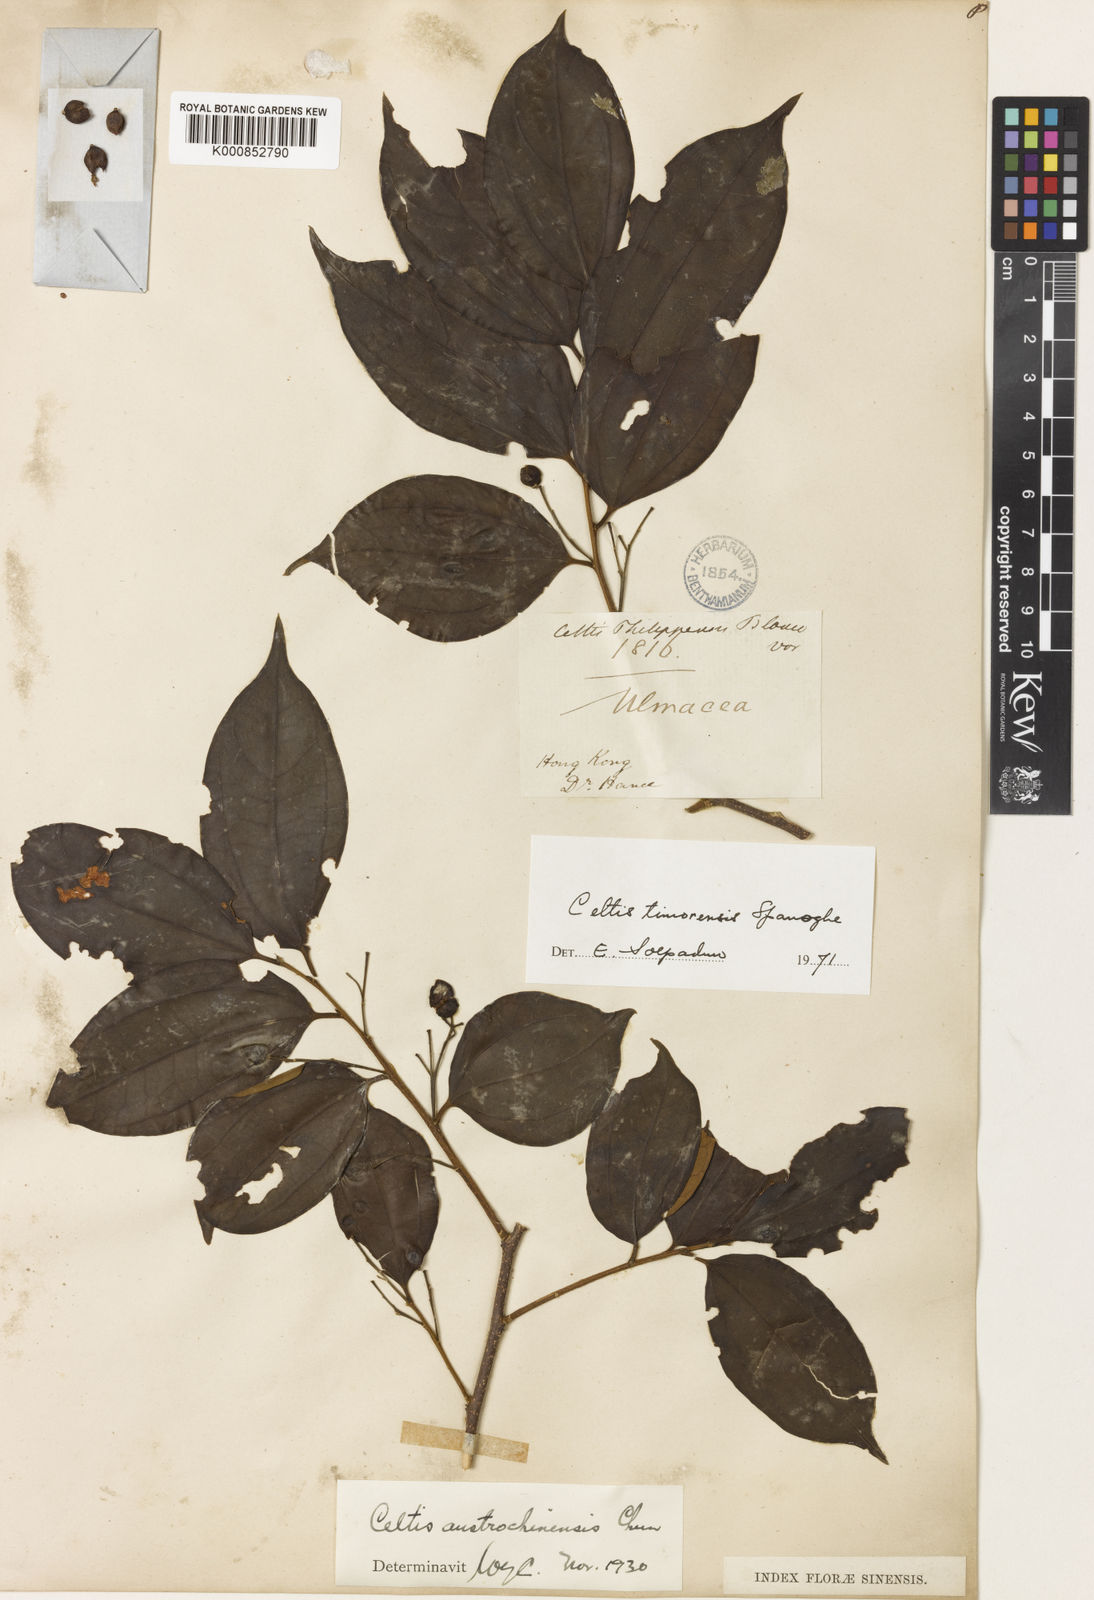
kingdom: Plantae
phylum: Tracheophyta
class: Magnoliopsida
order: Rosales
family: Cannabaceae
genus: Celtis
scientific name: Celtis timorensis
